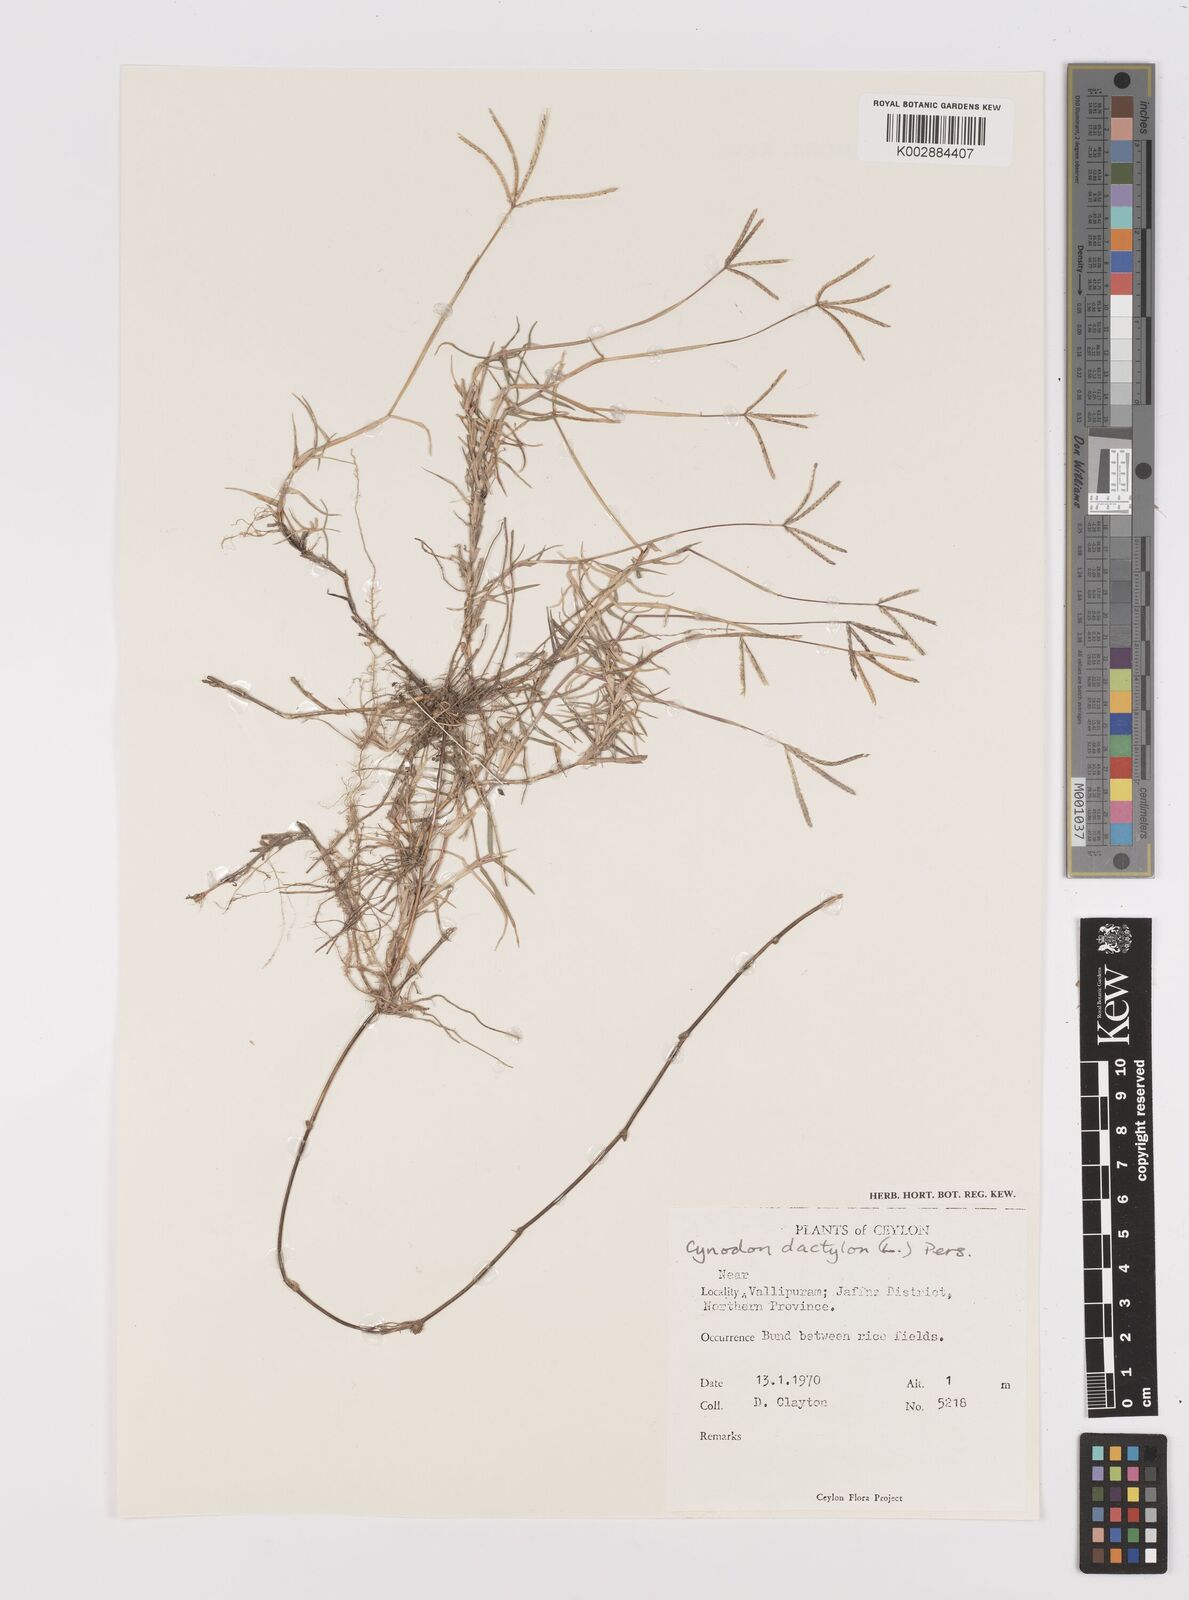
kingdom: Plantae
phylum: Tracheophyta
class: Liliopsida
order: Poales
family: Poaceae
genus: Cynodon
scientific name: Cynodon dactylon
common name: Bermuda grass
